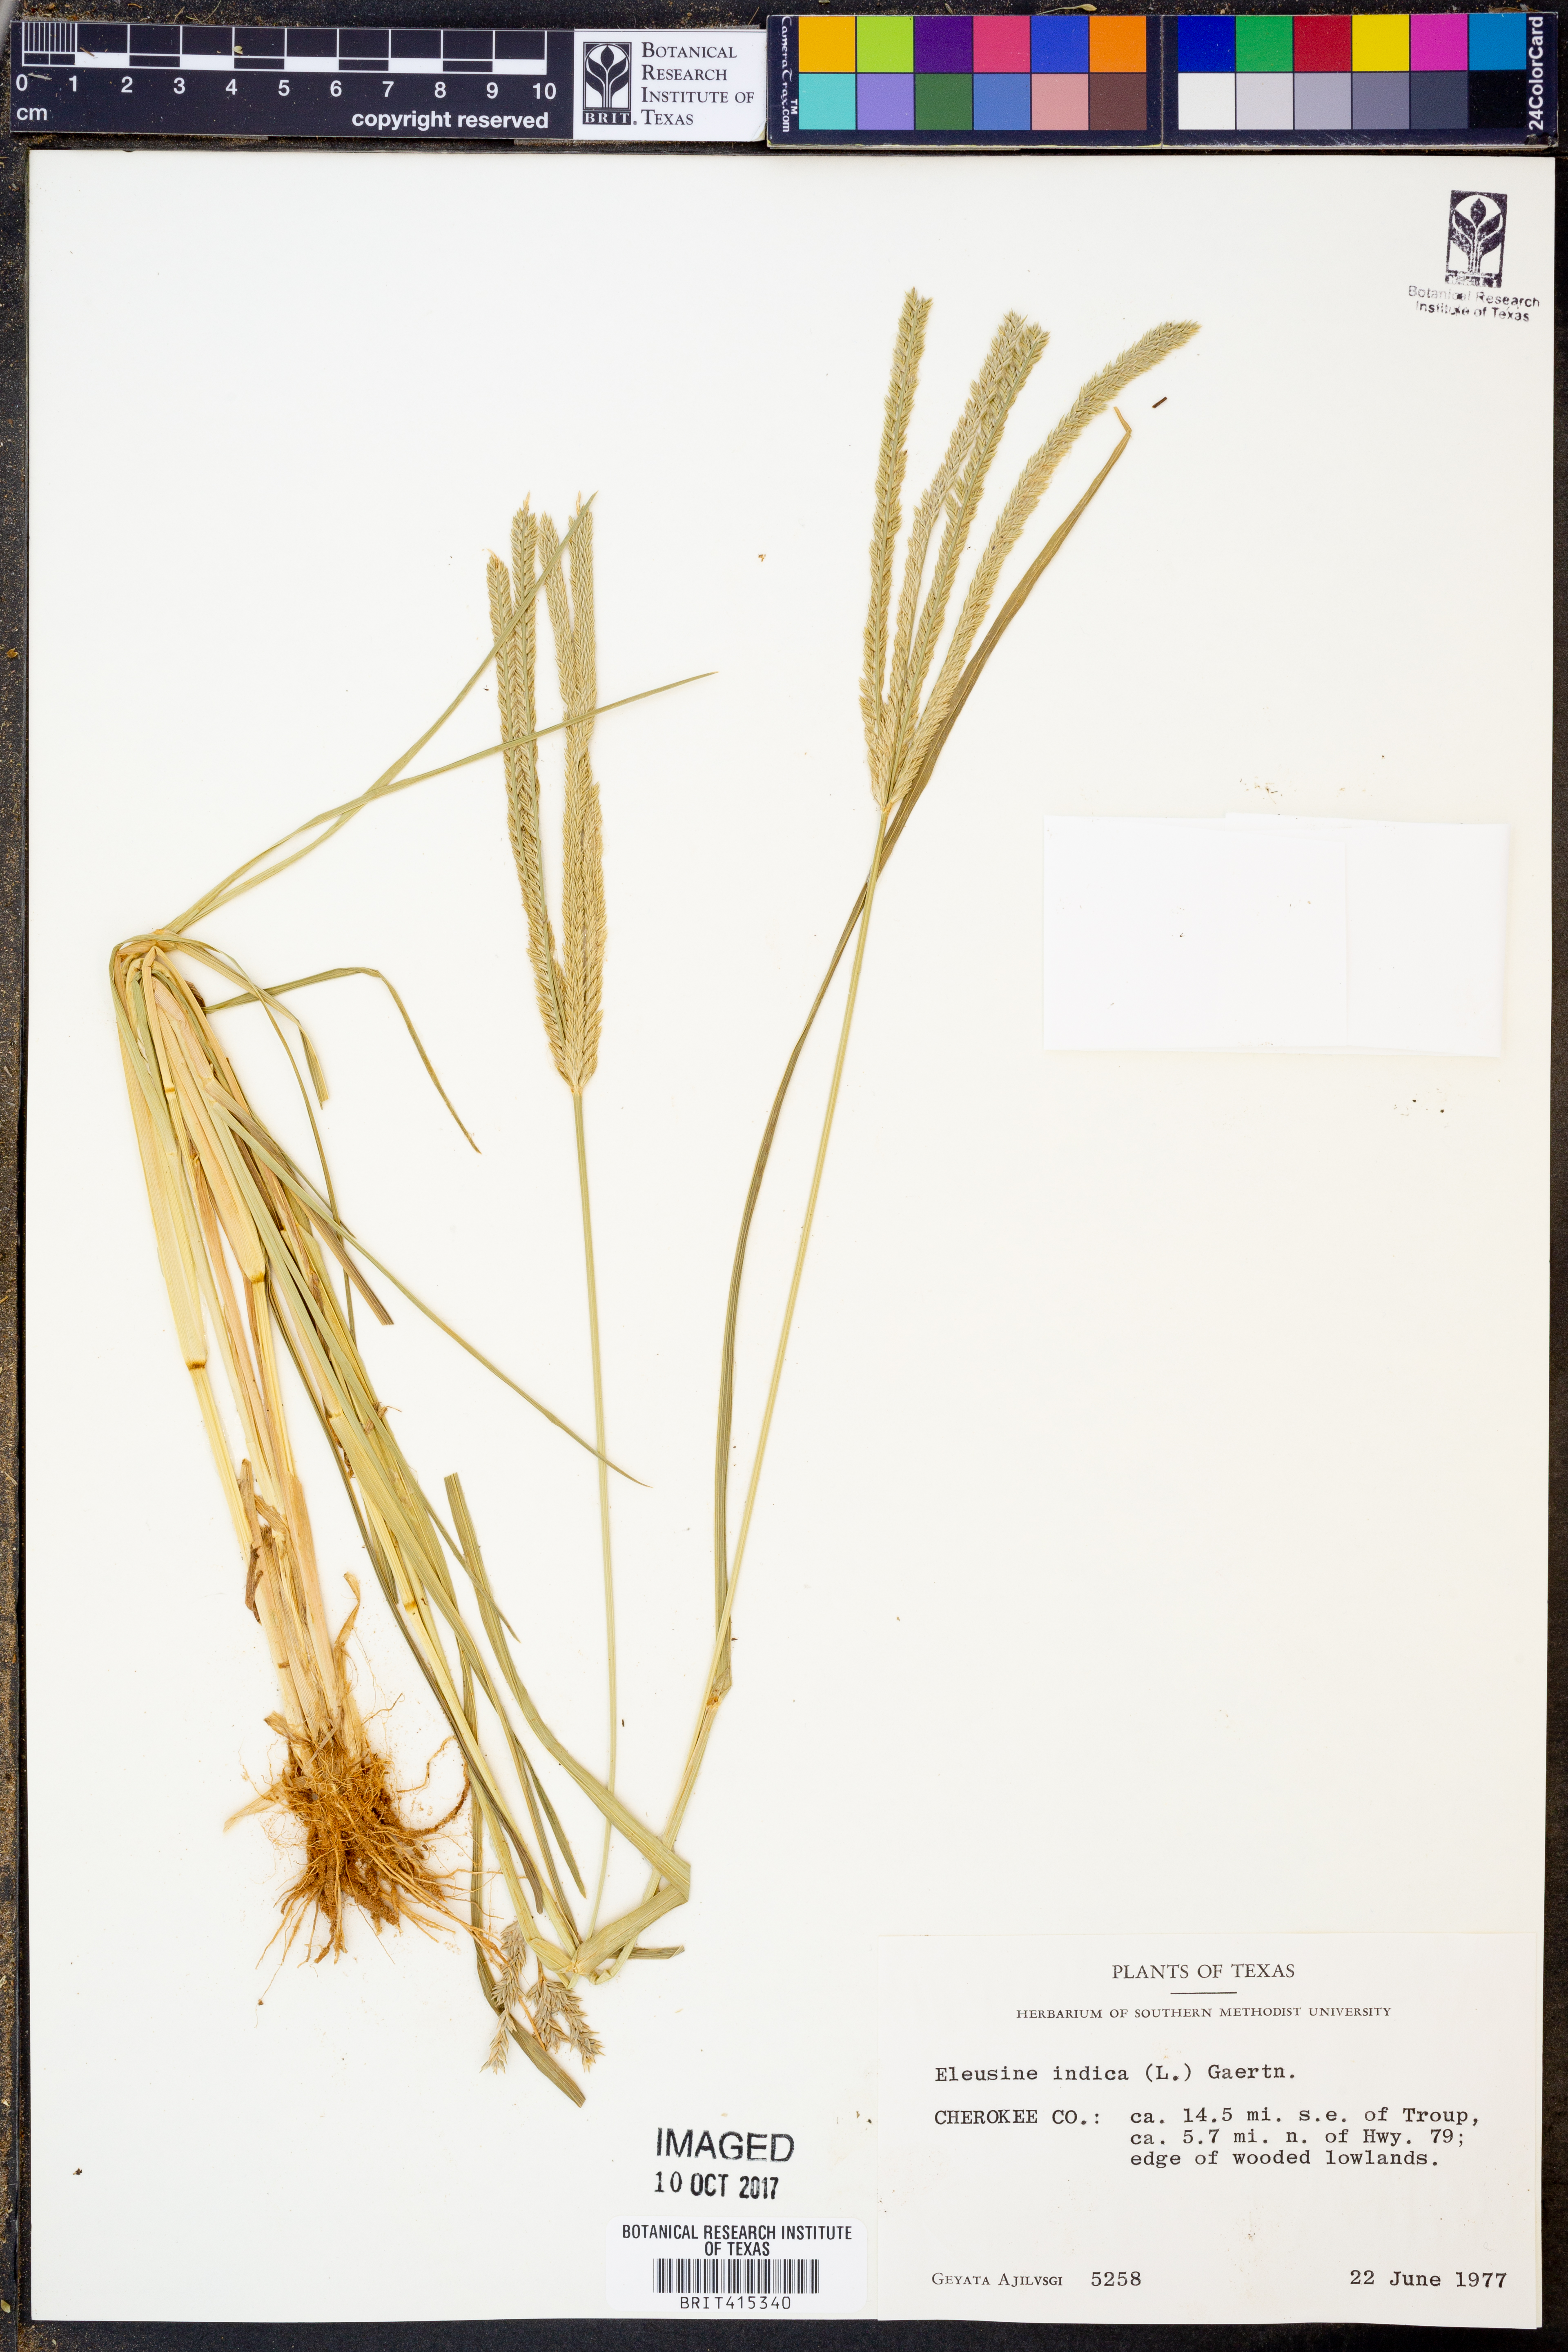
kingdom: Plantae
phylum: Tracheophyta
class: Liliopsida
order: Poales
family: Poaceae
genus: Eleusine
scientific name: Eleusine indica
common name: Yard-grass
